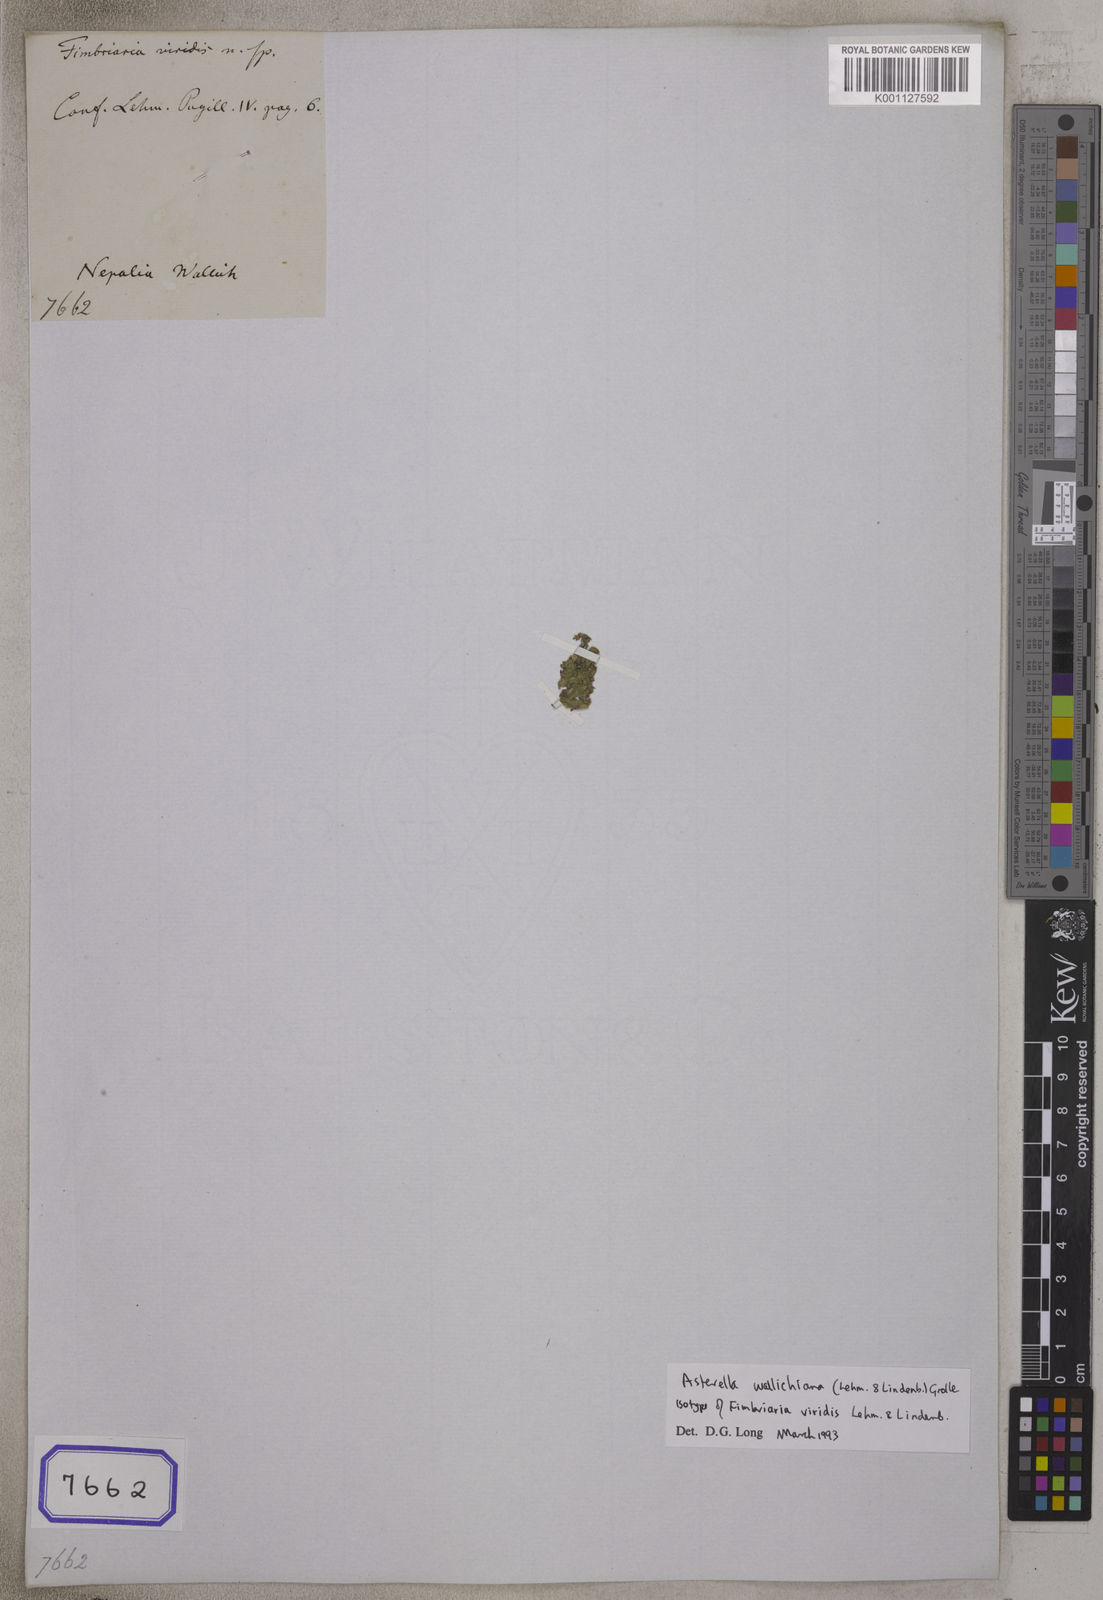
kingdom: Plantae
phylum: Marchantiophyta
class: Marchantiopsida
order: Marchantiales
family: Aytoniaceae
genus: Fimbriaria
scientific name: Fimbriaria
